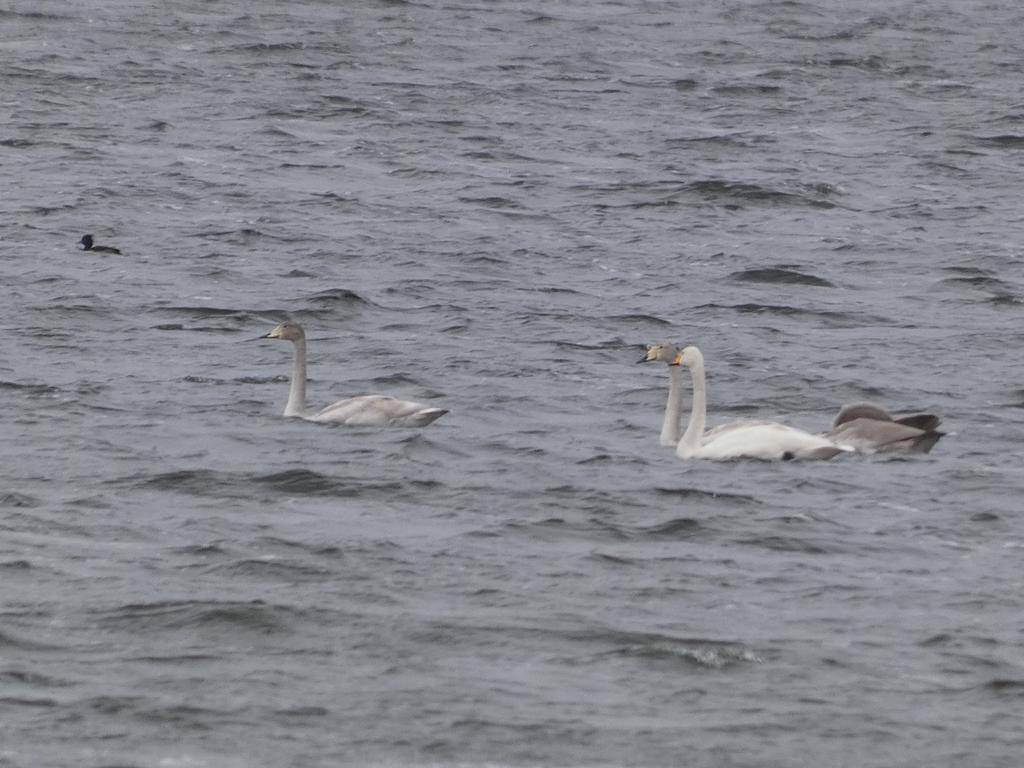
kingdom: Animalia
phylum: Chordata
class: Aves
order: Anseriformes
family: Anatidae
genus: Cygnus
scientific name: Cygnus cygnus
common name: Sangsvane
